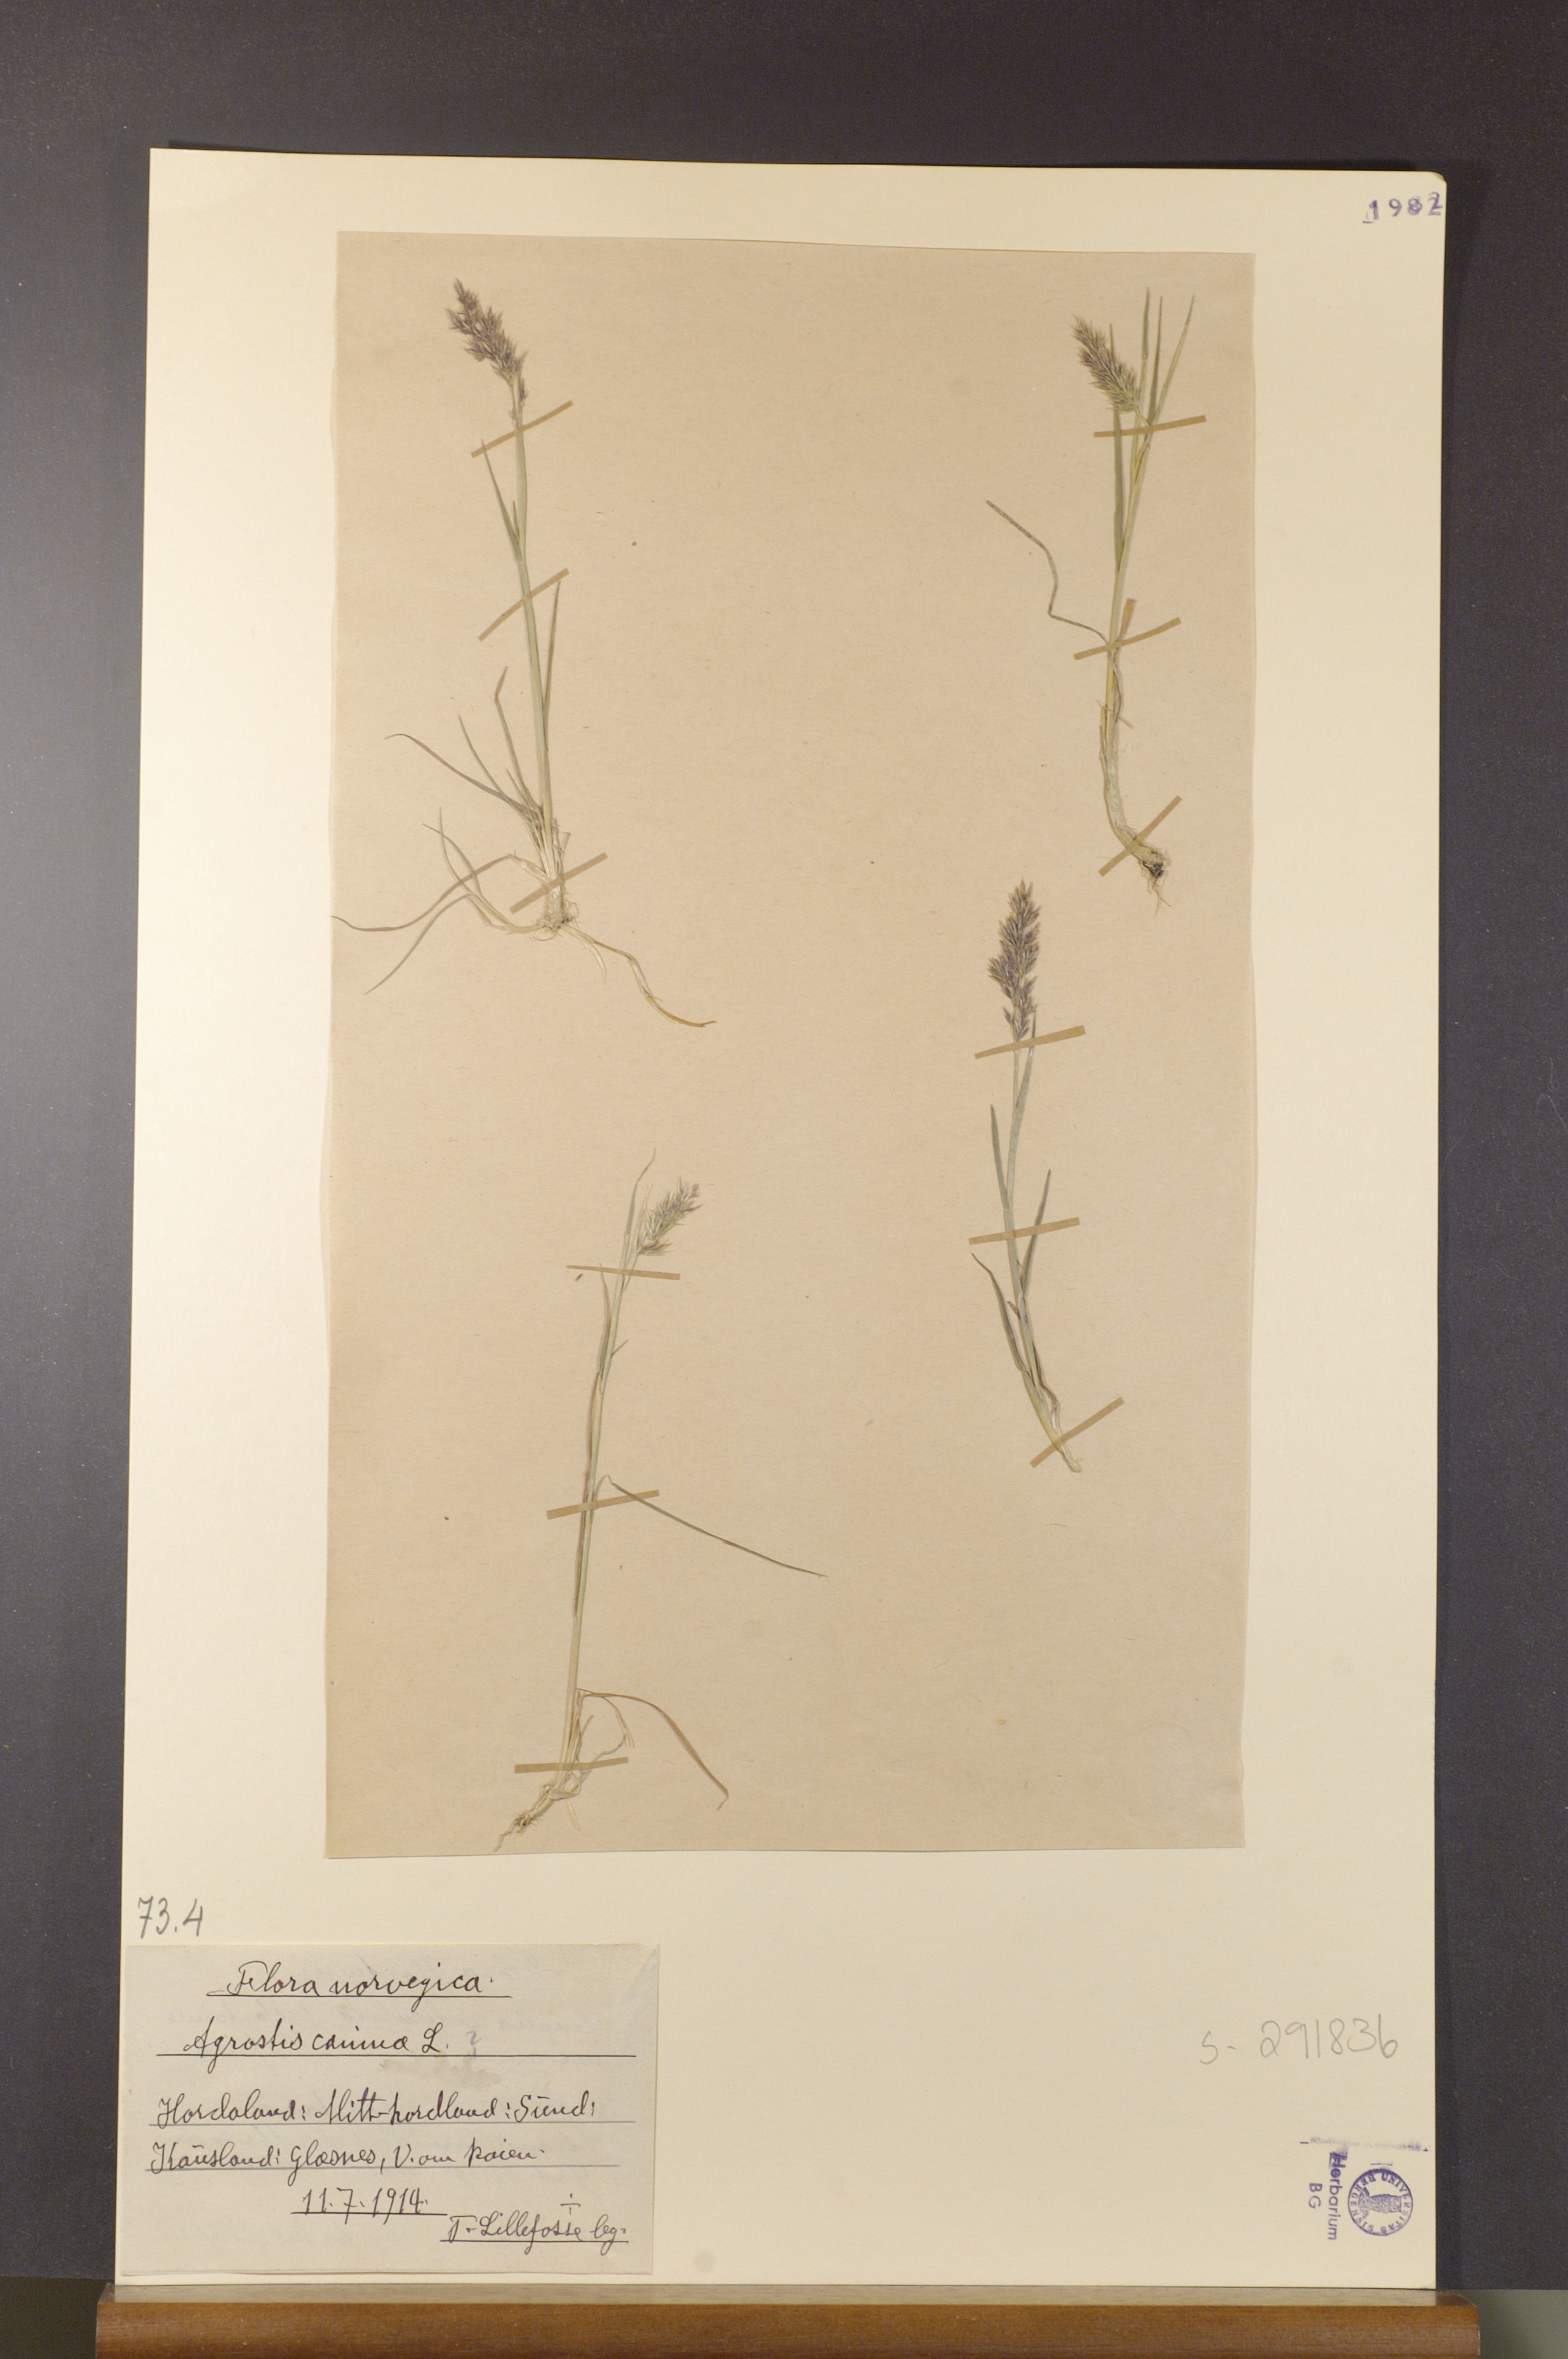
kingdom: Plantae
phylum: Tracheophyta
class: Liliopsida
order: Poales
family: Poaceae
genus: Agrostis
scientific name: Agrostis canina
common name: Velvet bent
